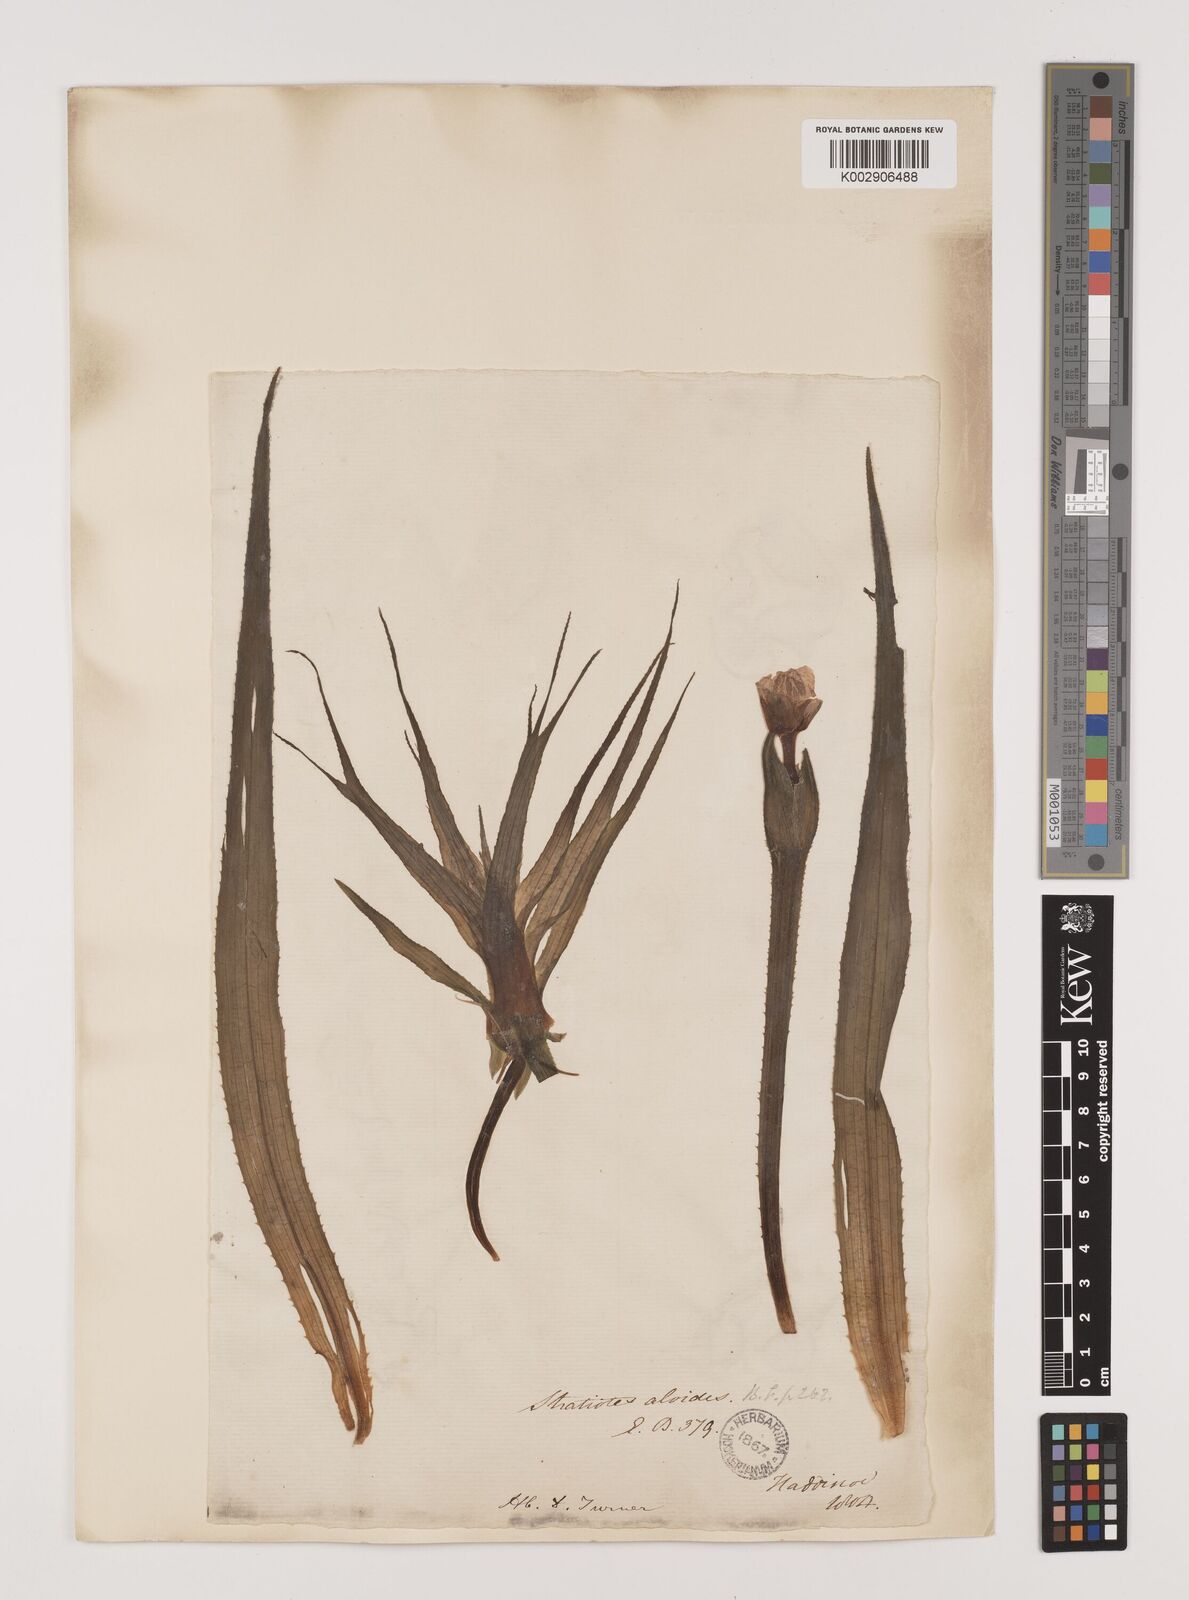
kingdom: Plantae
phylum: Tracheophyta
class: Liliopsida
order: Alismatales
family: Hydrocharitaceae
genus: Stratiotes
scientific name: Stratiotes aloides
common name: Water-soldier
